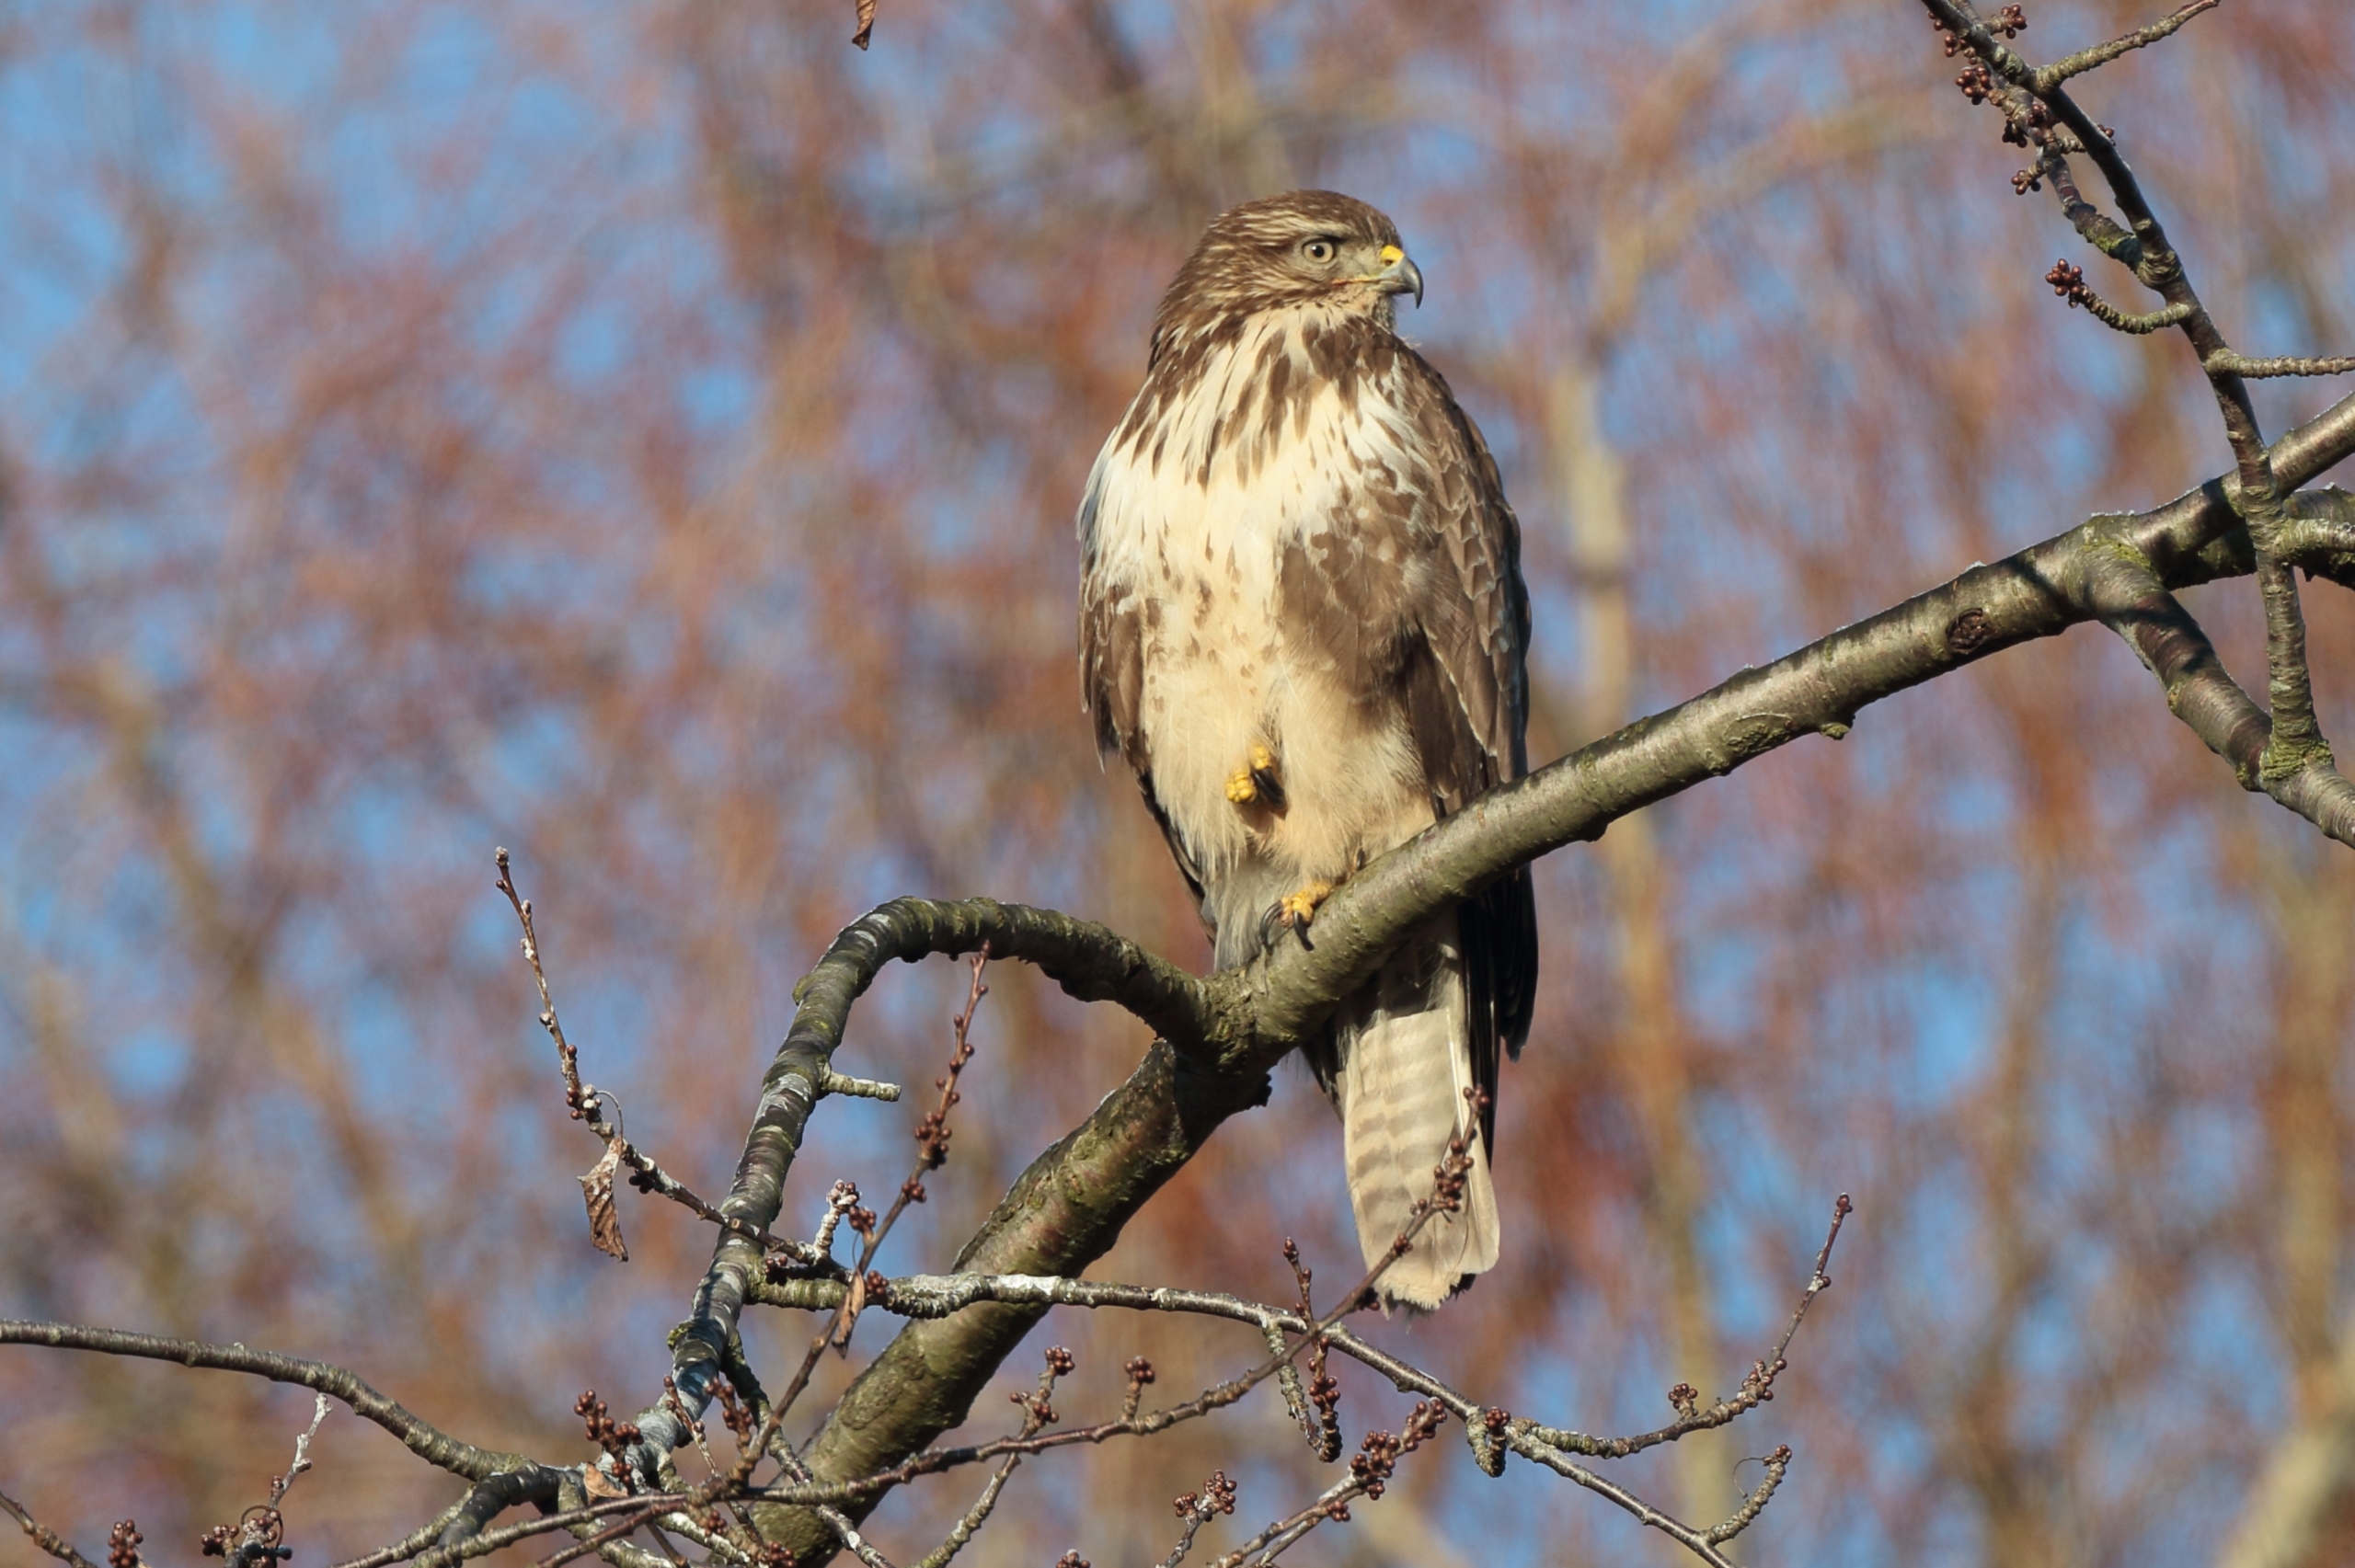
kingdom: Animalia
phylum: Chordata
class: Aves
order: Accipitriformes
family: Accipitridae
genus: Buteo
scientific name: Buteo buteo
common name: Musvåge
